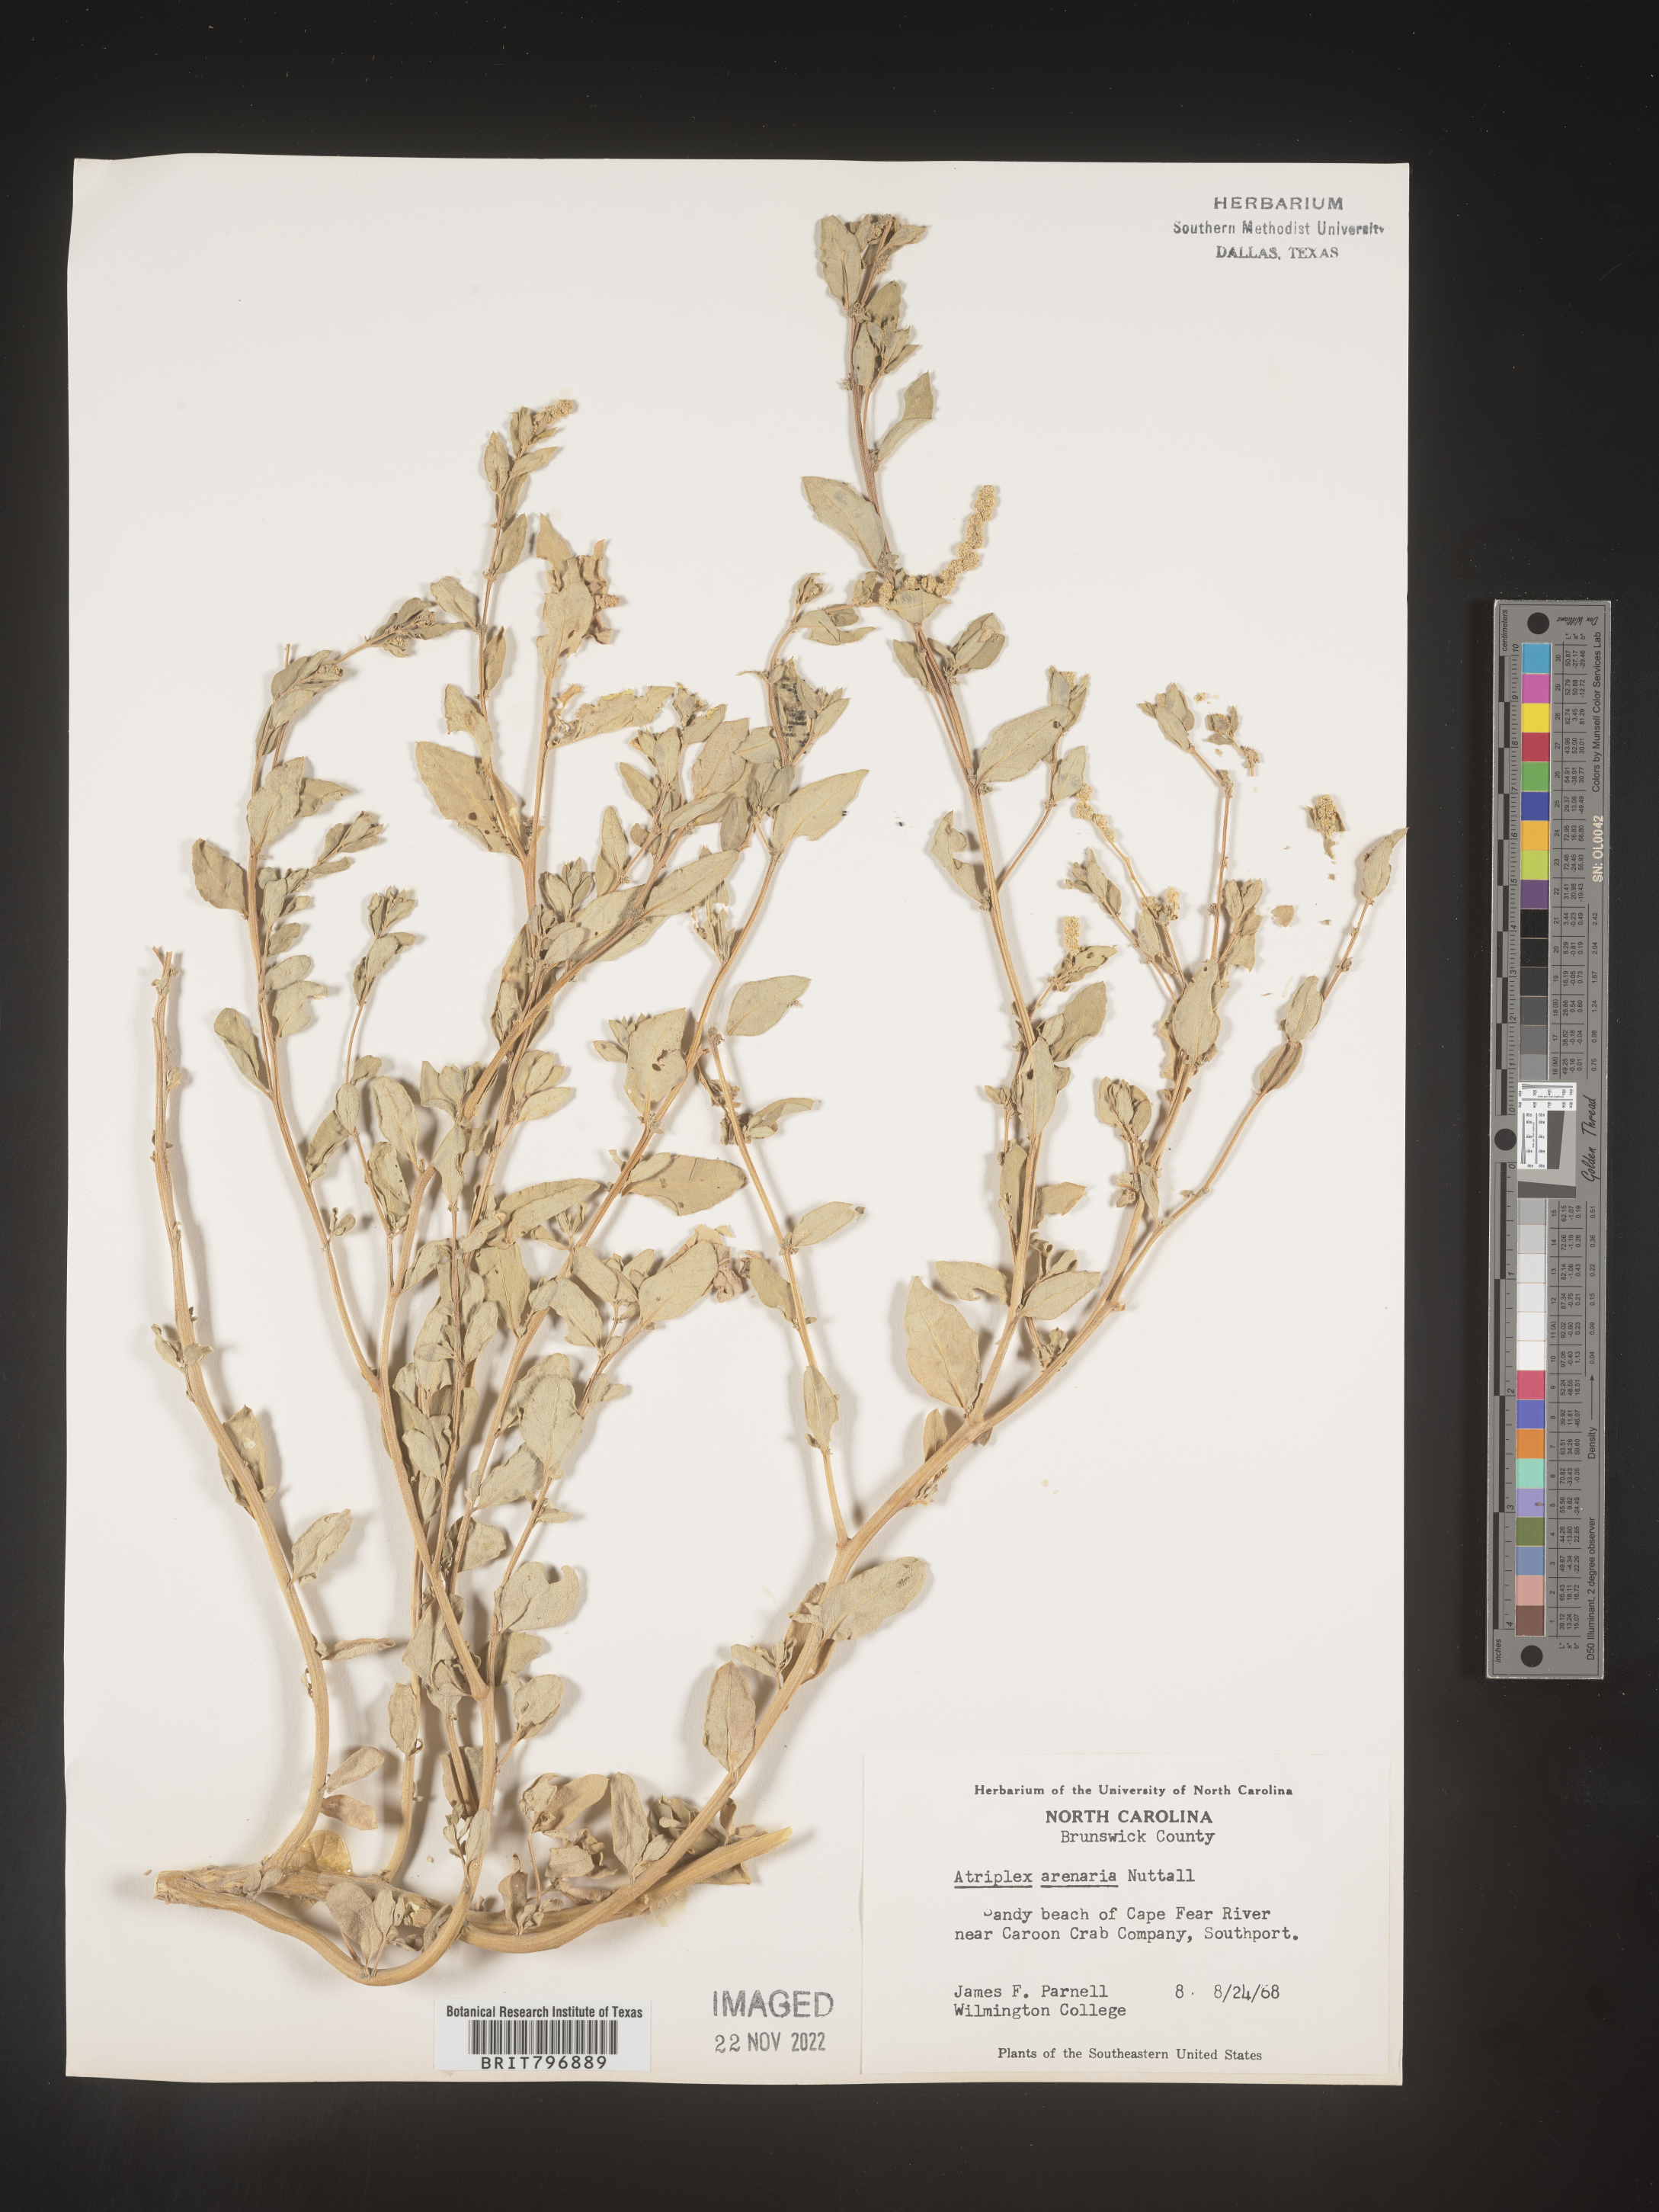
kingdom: Plantae
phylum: Tracheophyta
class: Magnoliopsida
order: Caryophyllales
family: Amaranthaceae
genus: Atriplex
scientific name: Atriplex mucronata
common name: Quelite
